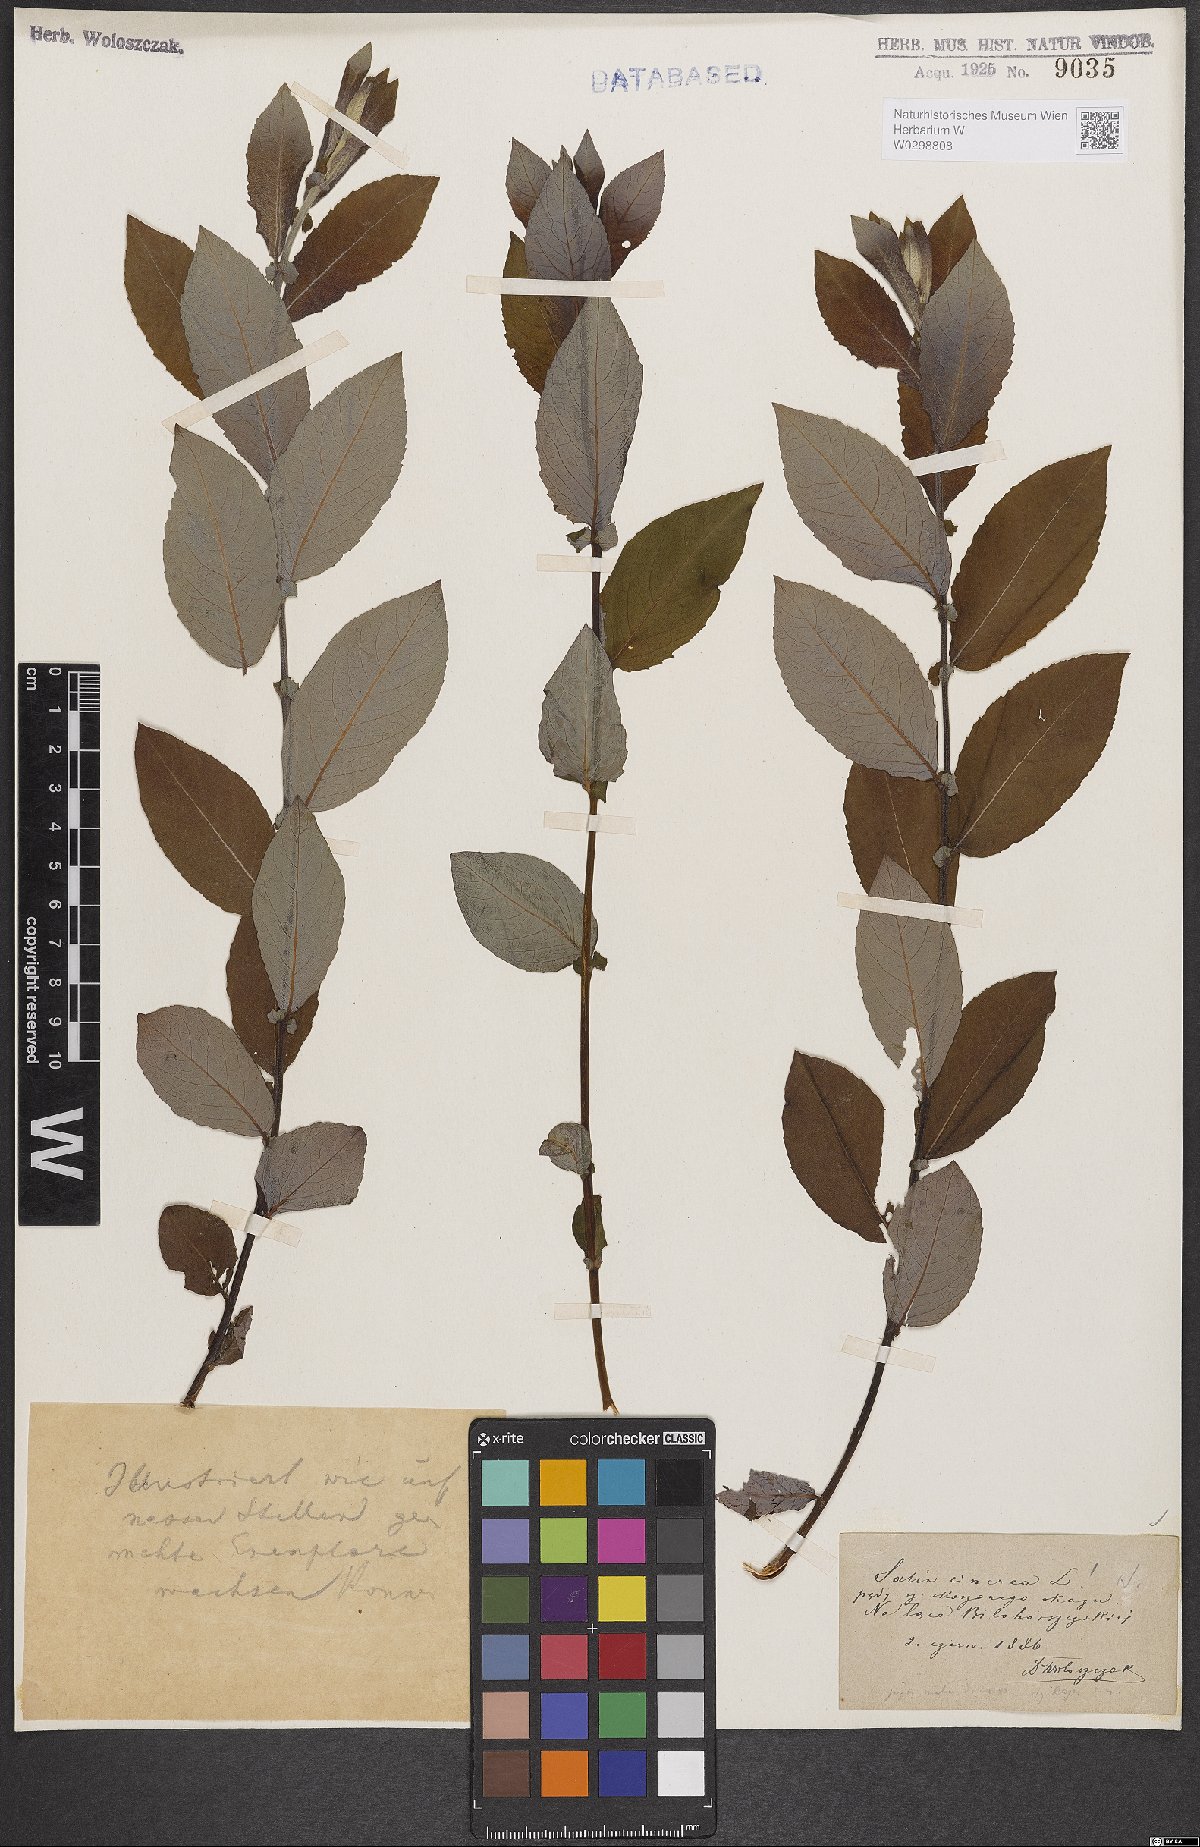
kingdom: Plantae
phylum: Tracheophyta
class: Magnoliopsida
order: Malpighiales
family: Salicaceae
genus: Salix
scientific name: Salix cinerea
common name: Common sallow
